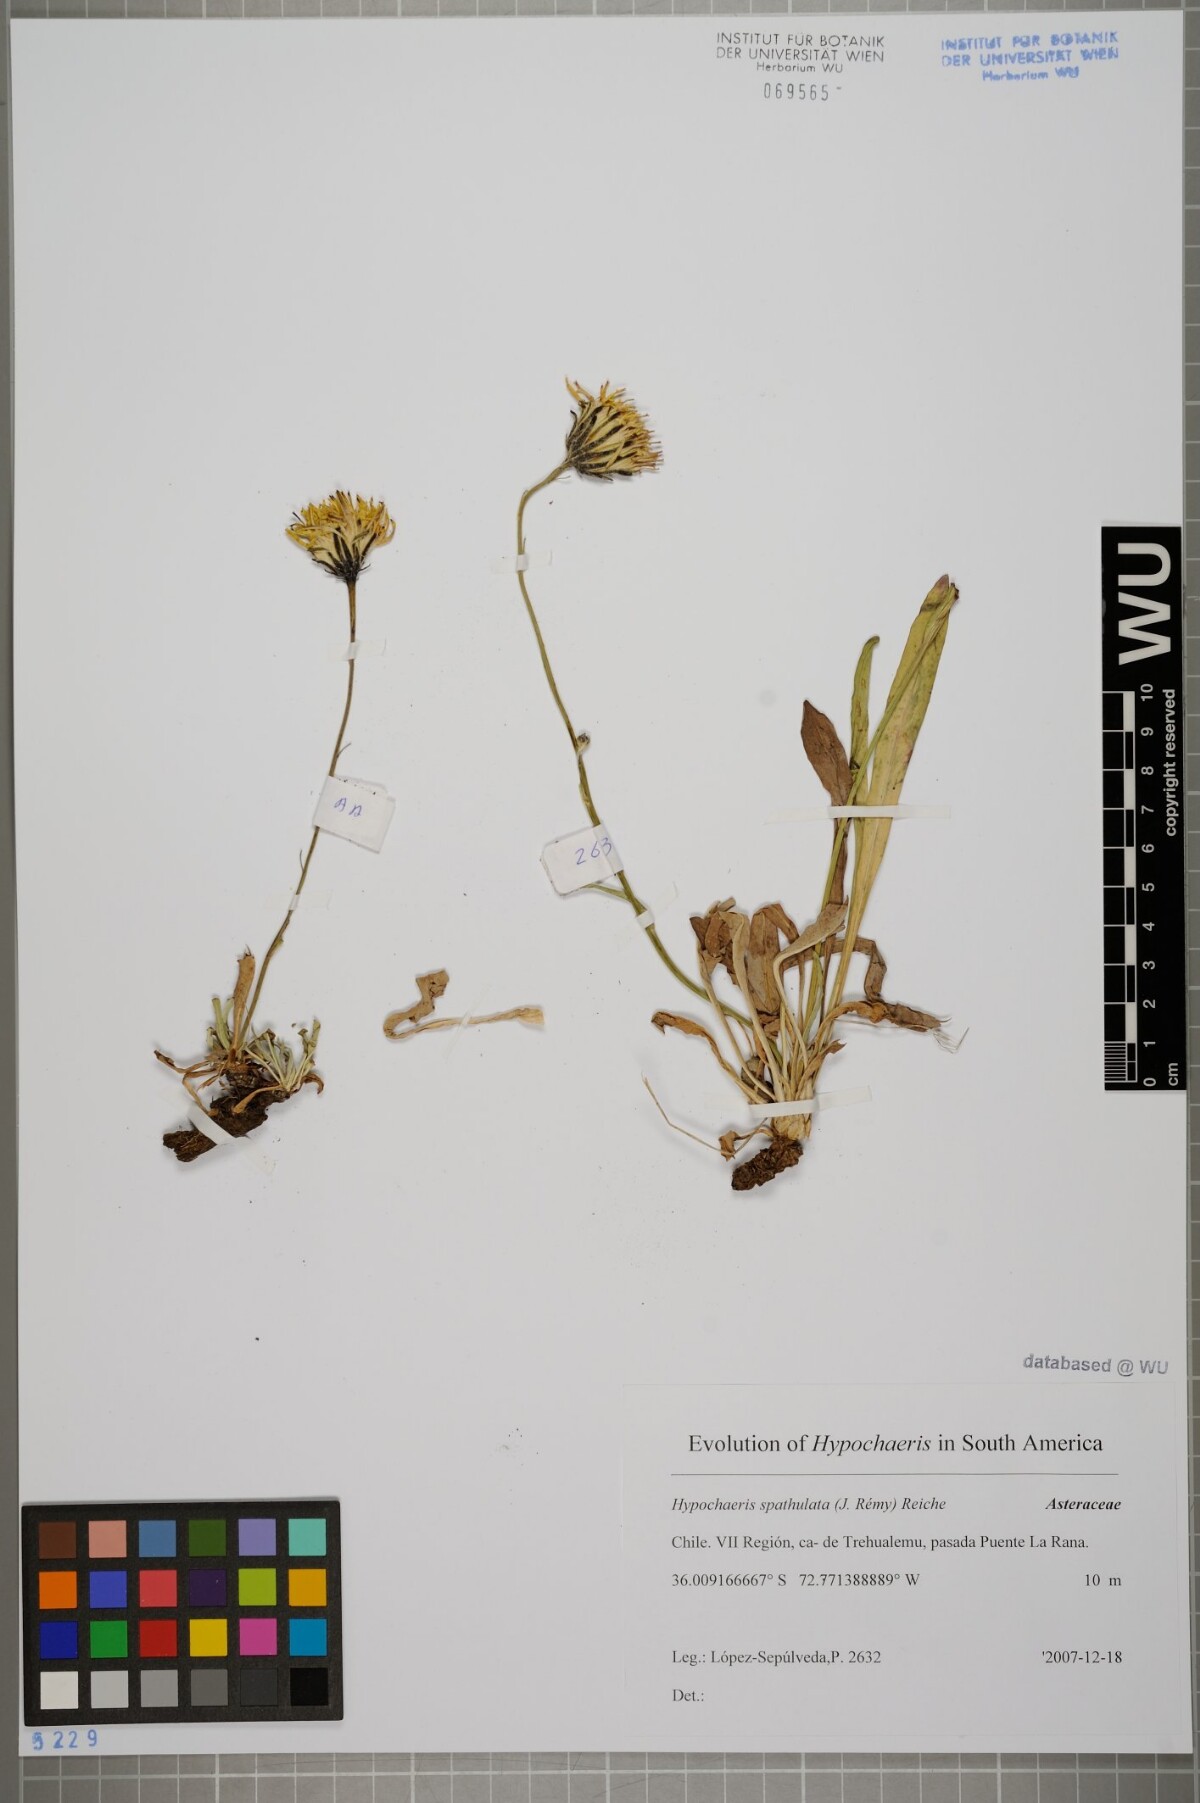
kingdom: Plantae
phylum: Tracheophyta
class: Magnoliopsida
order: Asterales
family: Asteraceae
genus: Hypochaeris
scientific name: Hypochaeris spathulata
